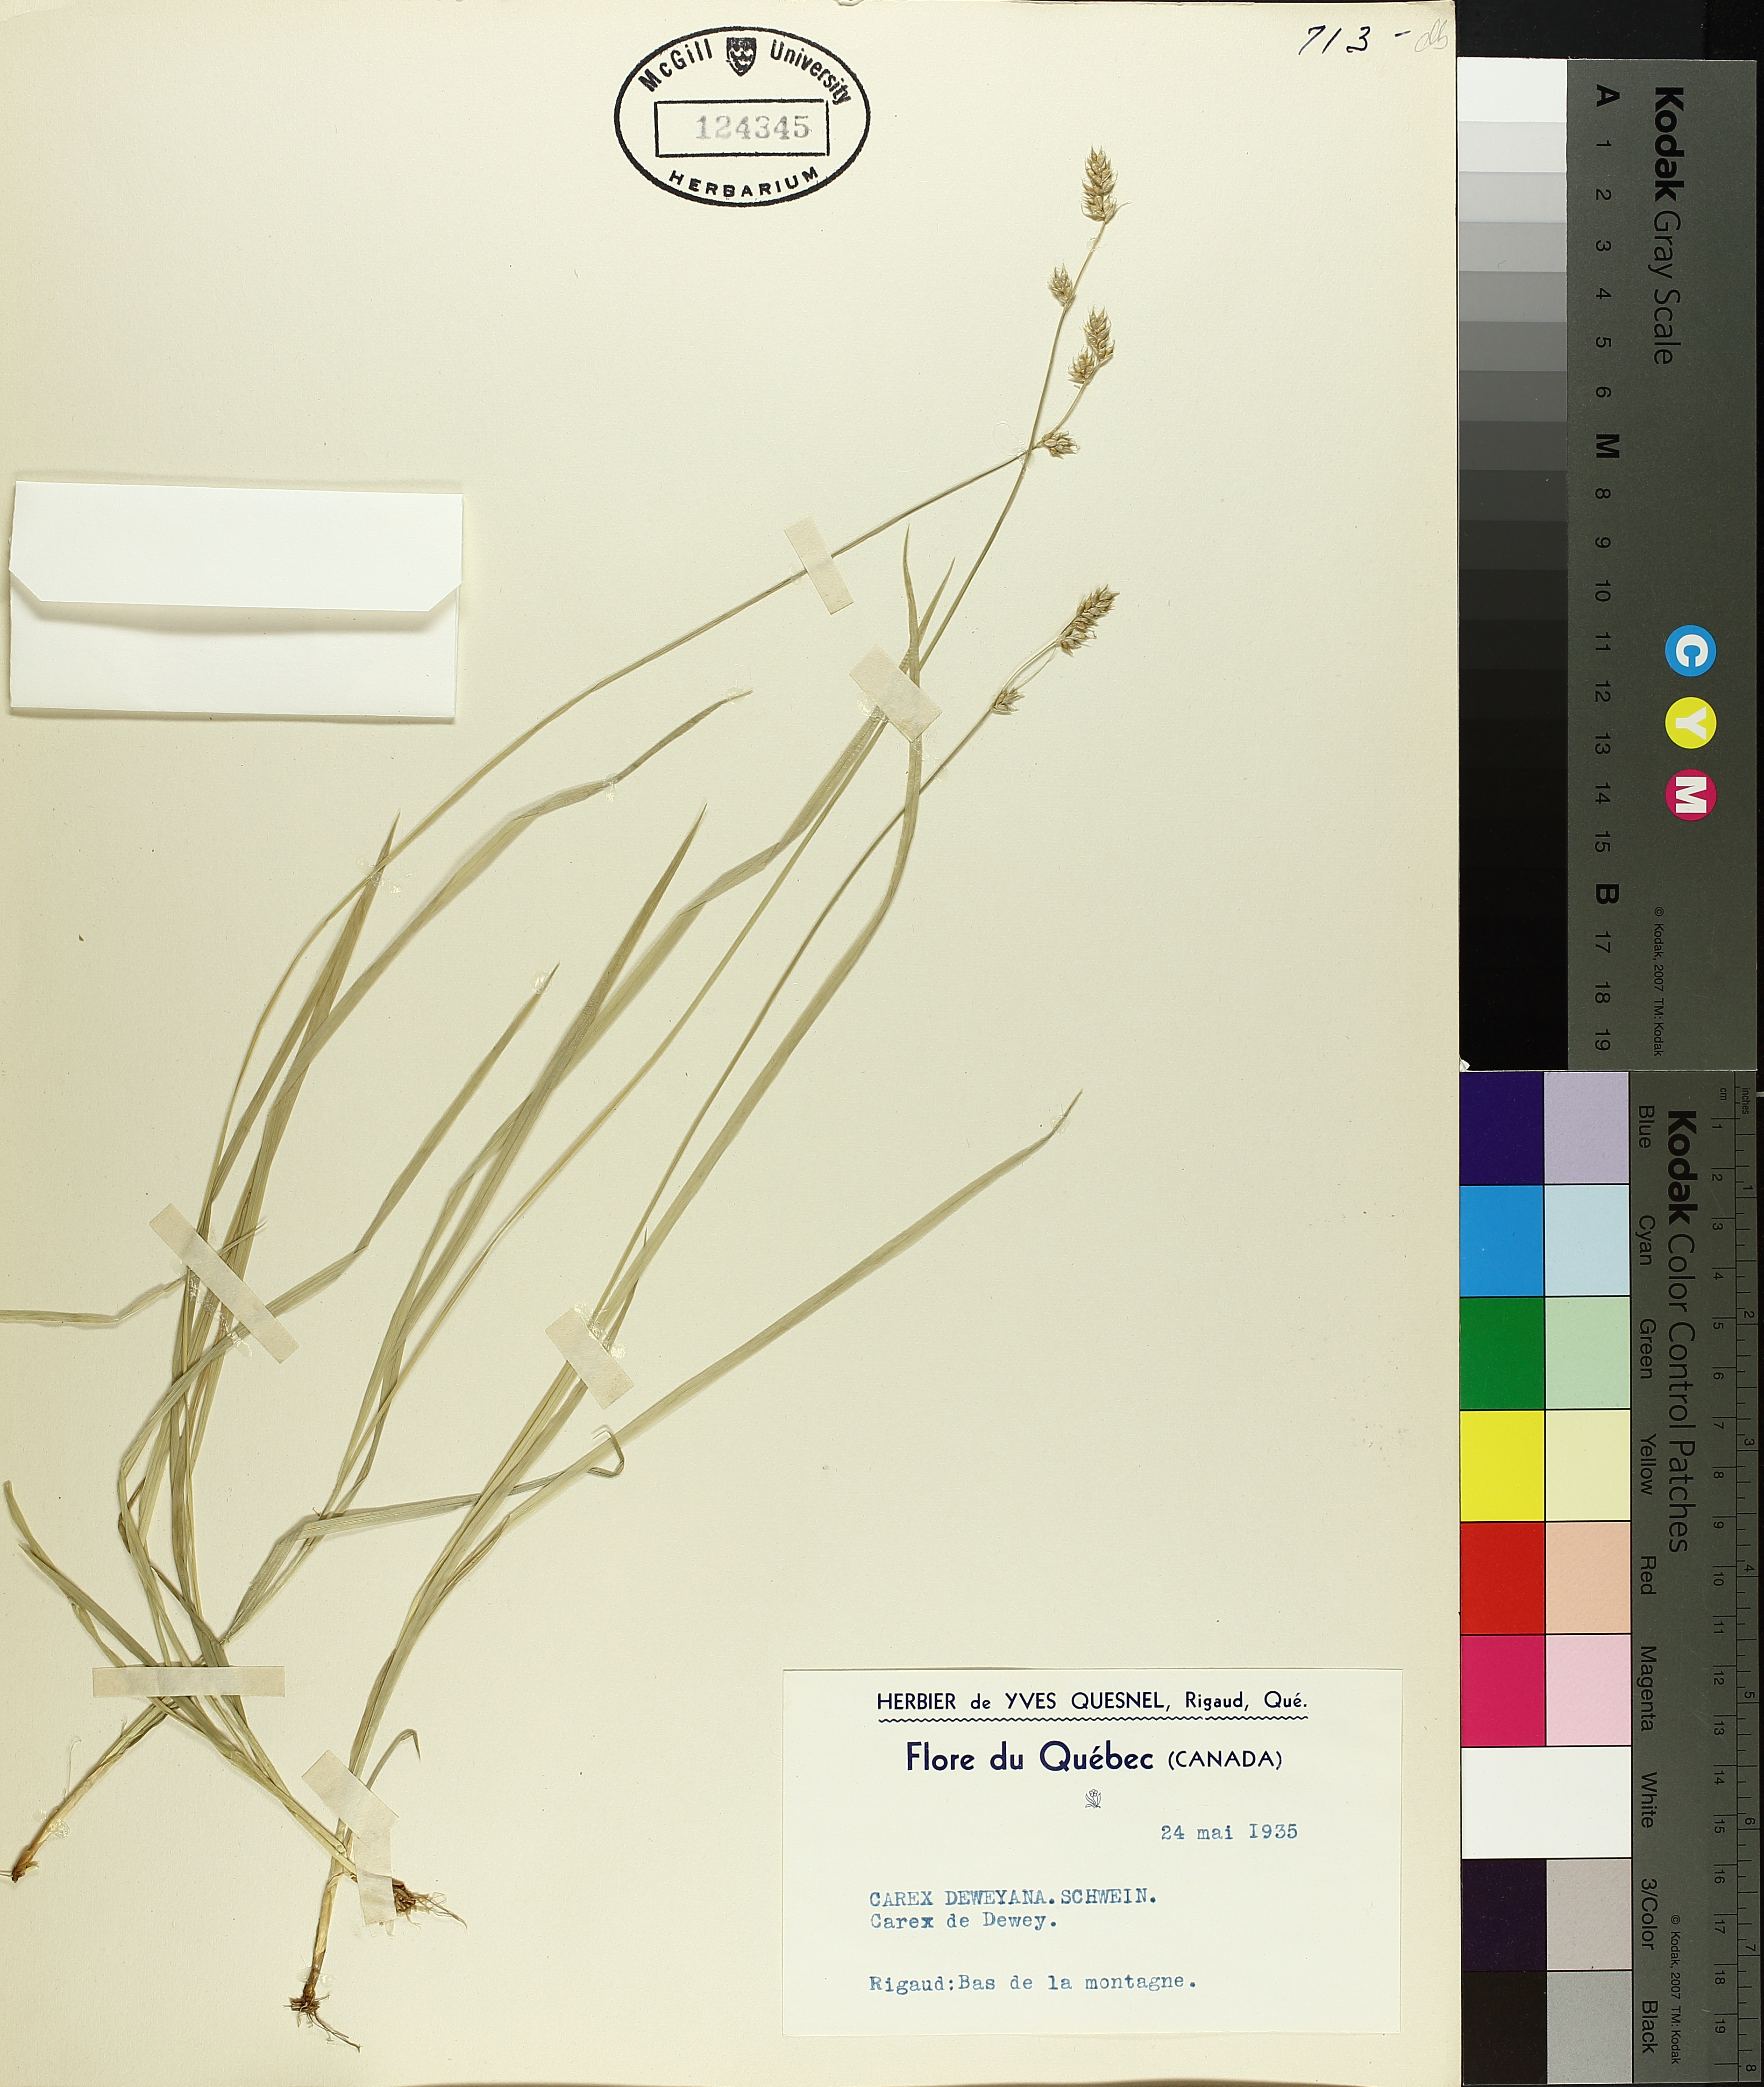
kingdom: Plantae
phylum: Tracheophyta
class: Liliopsida
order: Poales
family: Cyperaceae
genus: Carex
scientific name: Carex deweyana
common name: Dewey's sedge
